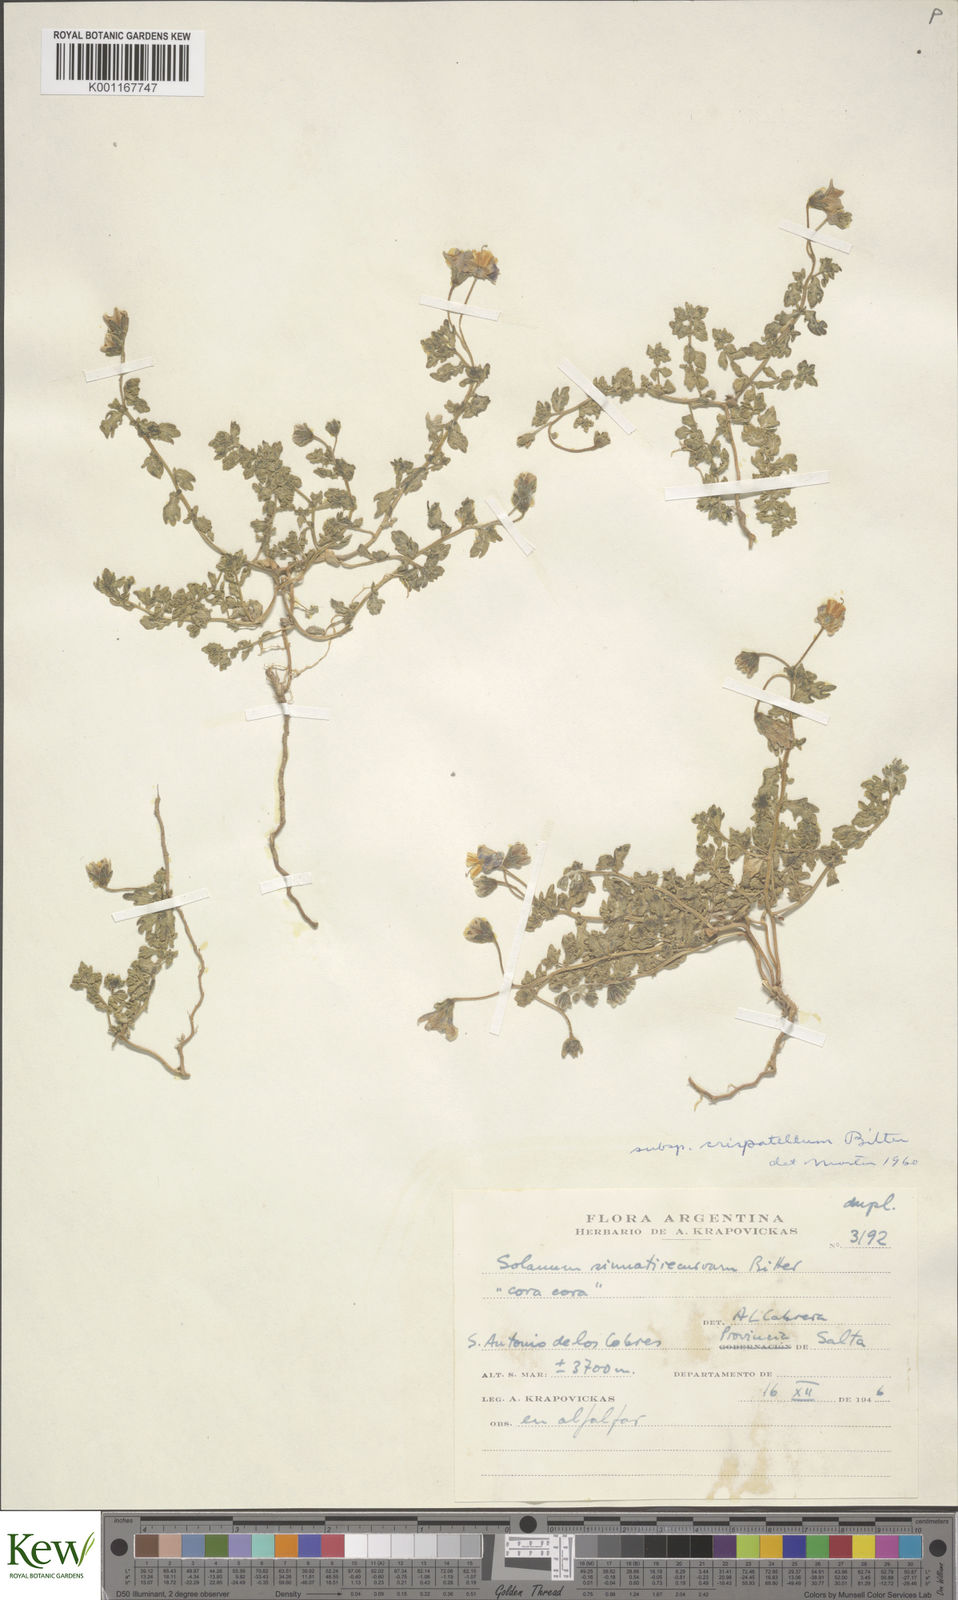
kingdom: Plantae
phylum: Tracheophyta
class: Magnoliopsida
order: Solanales
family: Solanaceae
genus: Solanum
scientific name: Solanum sinuatirecurvum
